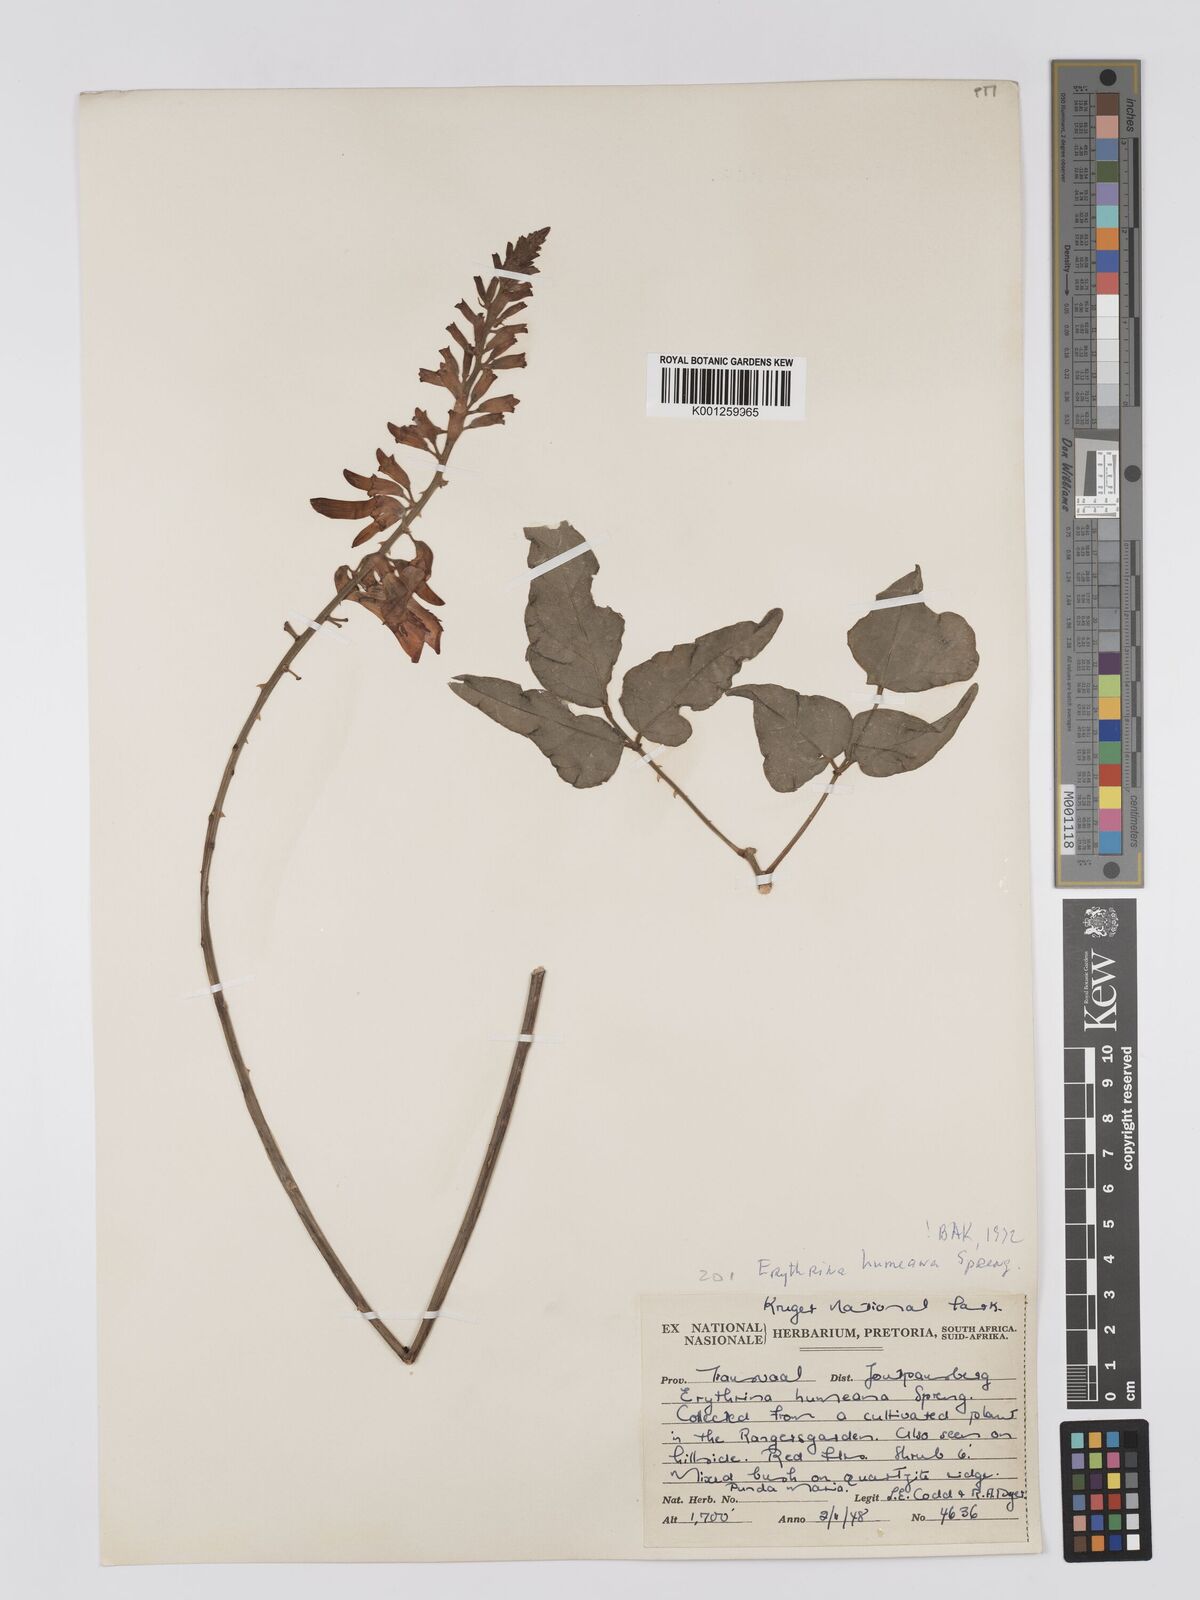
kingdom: Plantae
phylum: Tracheophyta
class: Magnoliopsida
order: Fabales
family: Fabaceae
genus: Erythrina
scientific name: Erythrina humeana
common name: Dwarf coral tree
